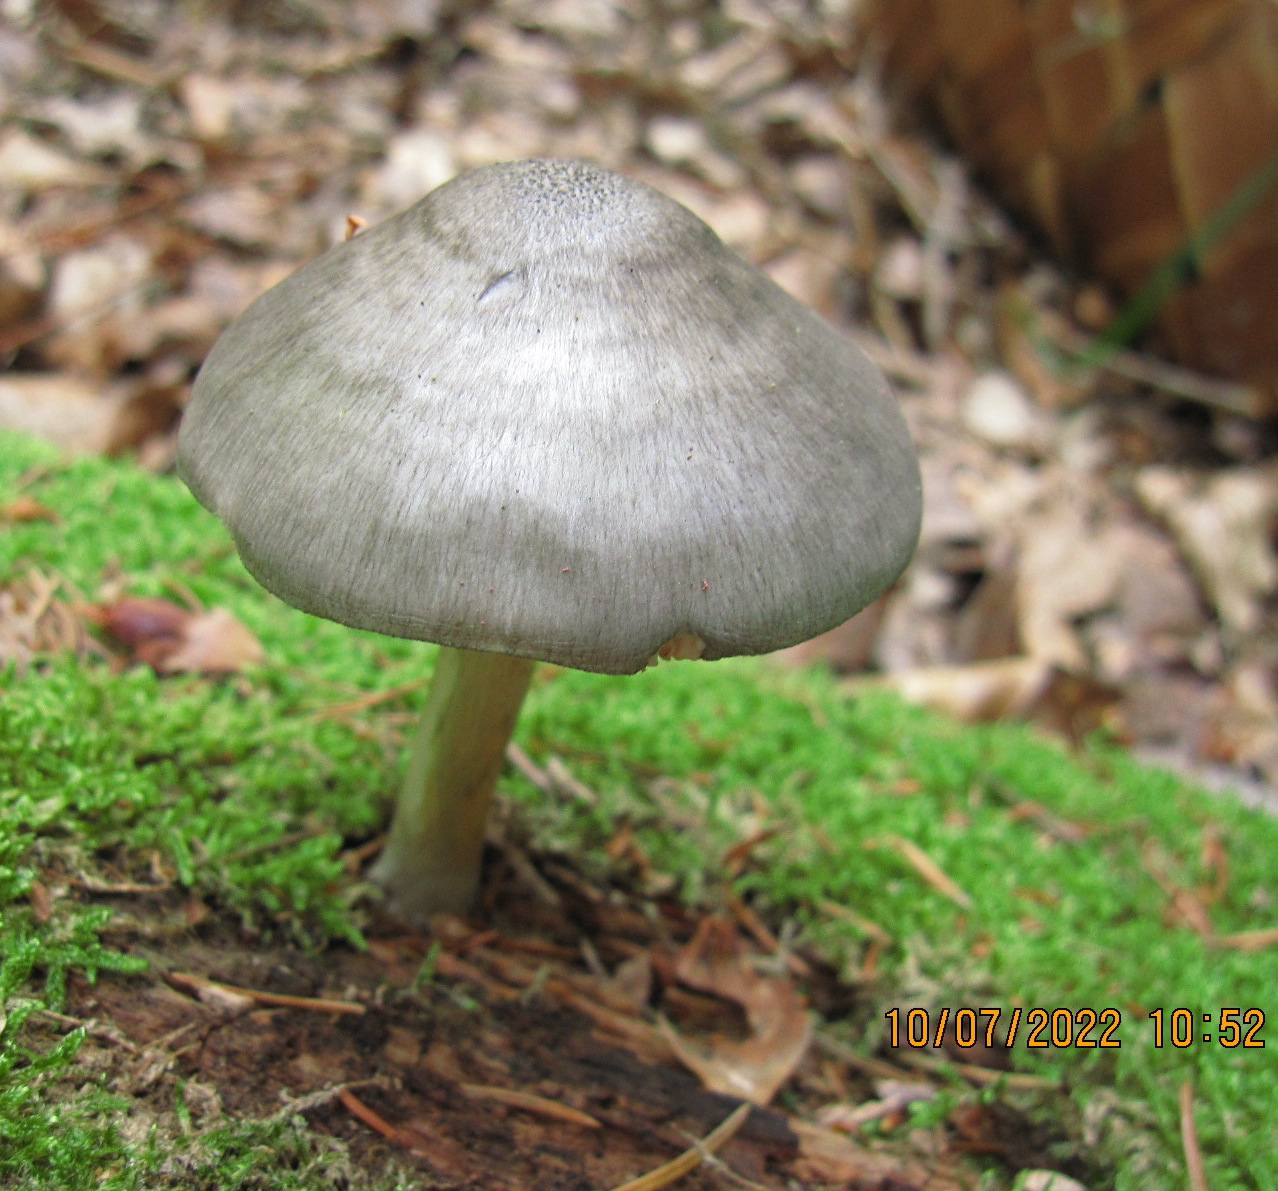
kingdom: Fungi
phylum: Basidiomycota
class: Agaricomycetes
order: Agaricales
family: Pluteaceae
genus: Pluteus
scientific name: Pluteus salicinus
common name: stiv skærmhat
